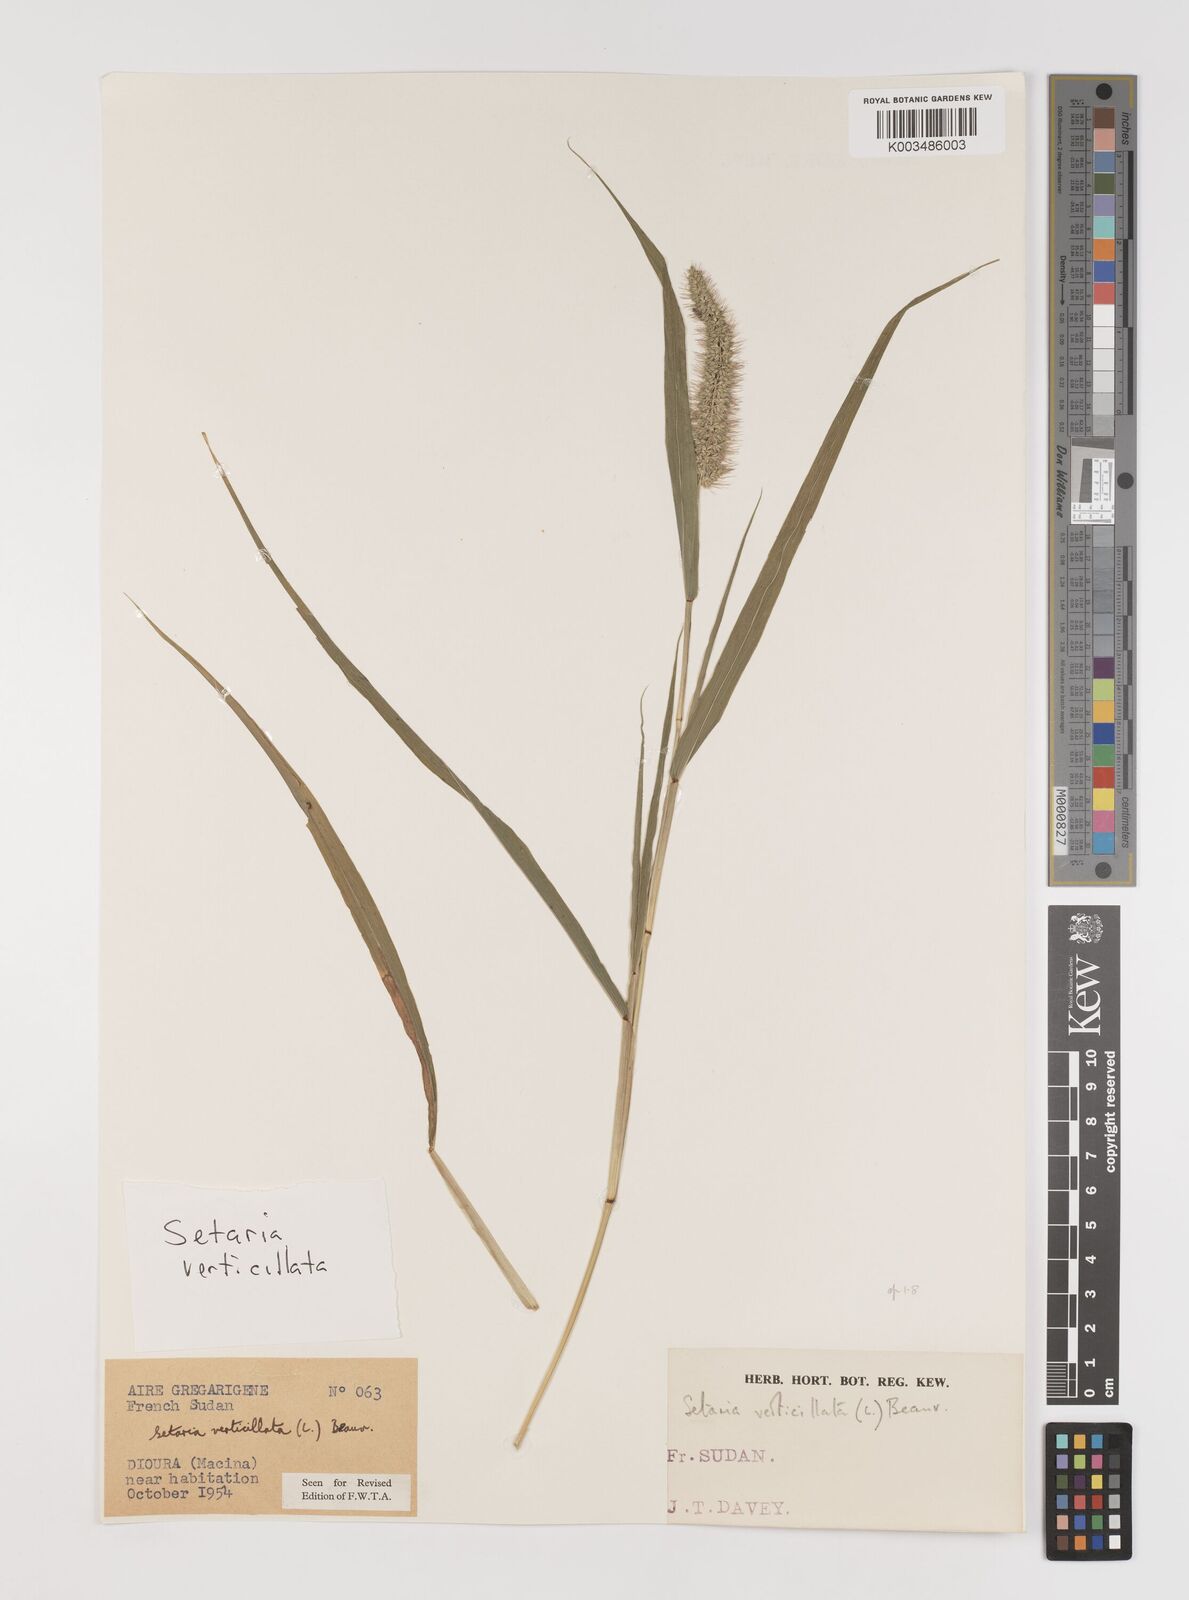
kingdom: Plantae
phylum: Tracheophyta
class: Liliopsida
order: Poales
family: Poaceae
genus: Setaria
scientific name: Setaria verticillata
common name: Hooked bristlegrass
